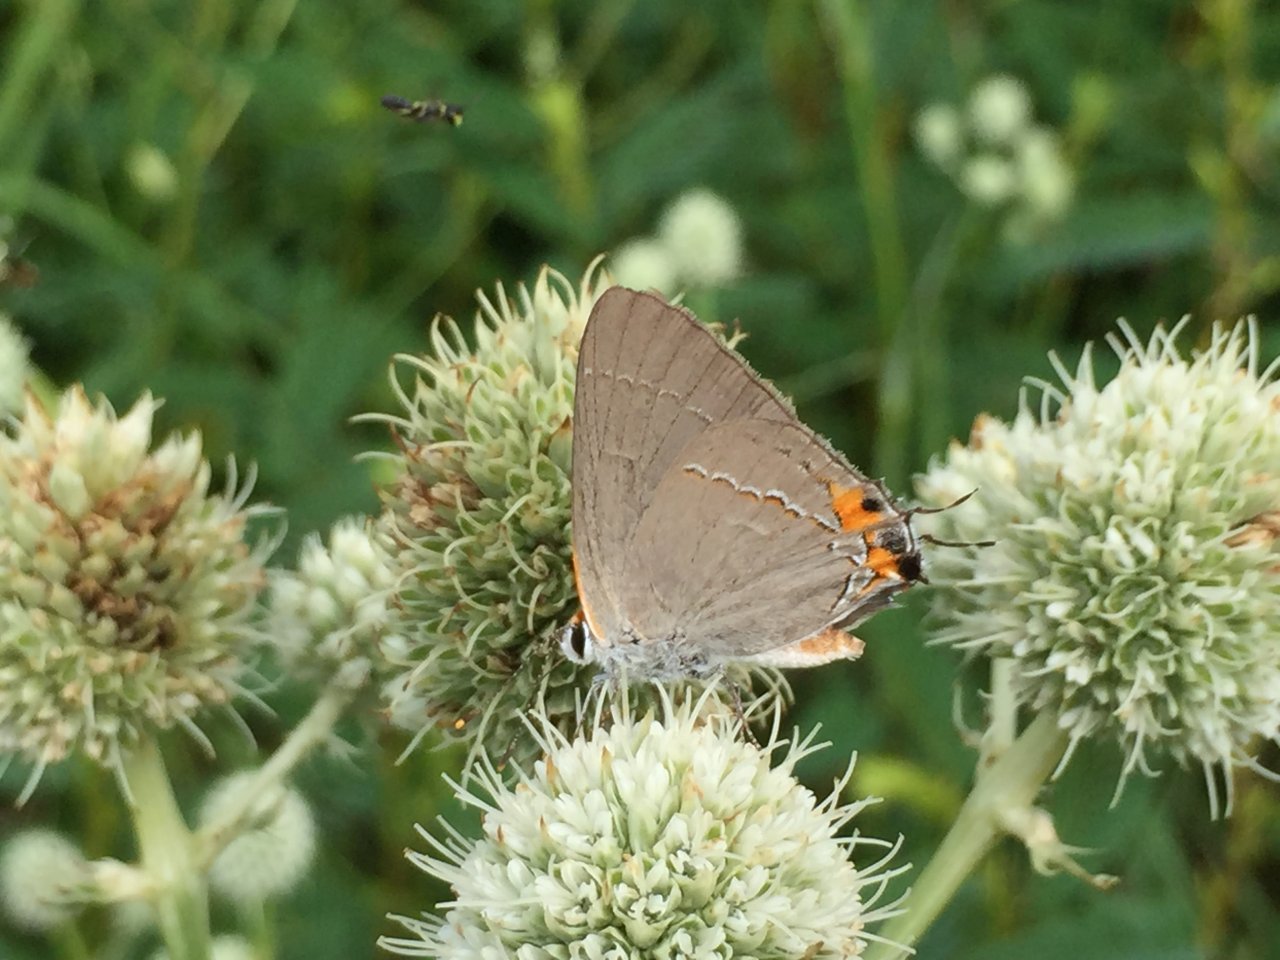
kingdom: Animalia
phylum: Arthropoda
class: Insecta
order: Lepidoptera
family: Lycaenidae
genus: Strymon
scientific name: Strymon melinus
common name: Gray Hairstreak
